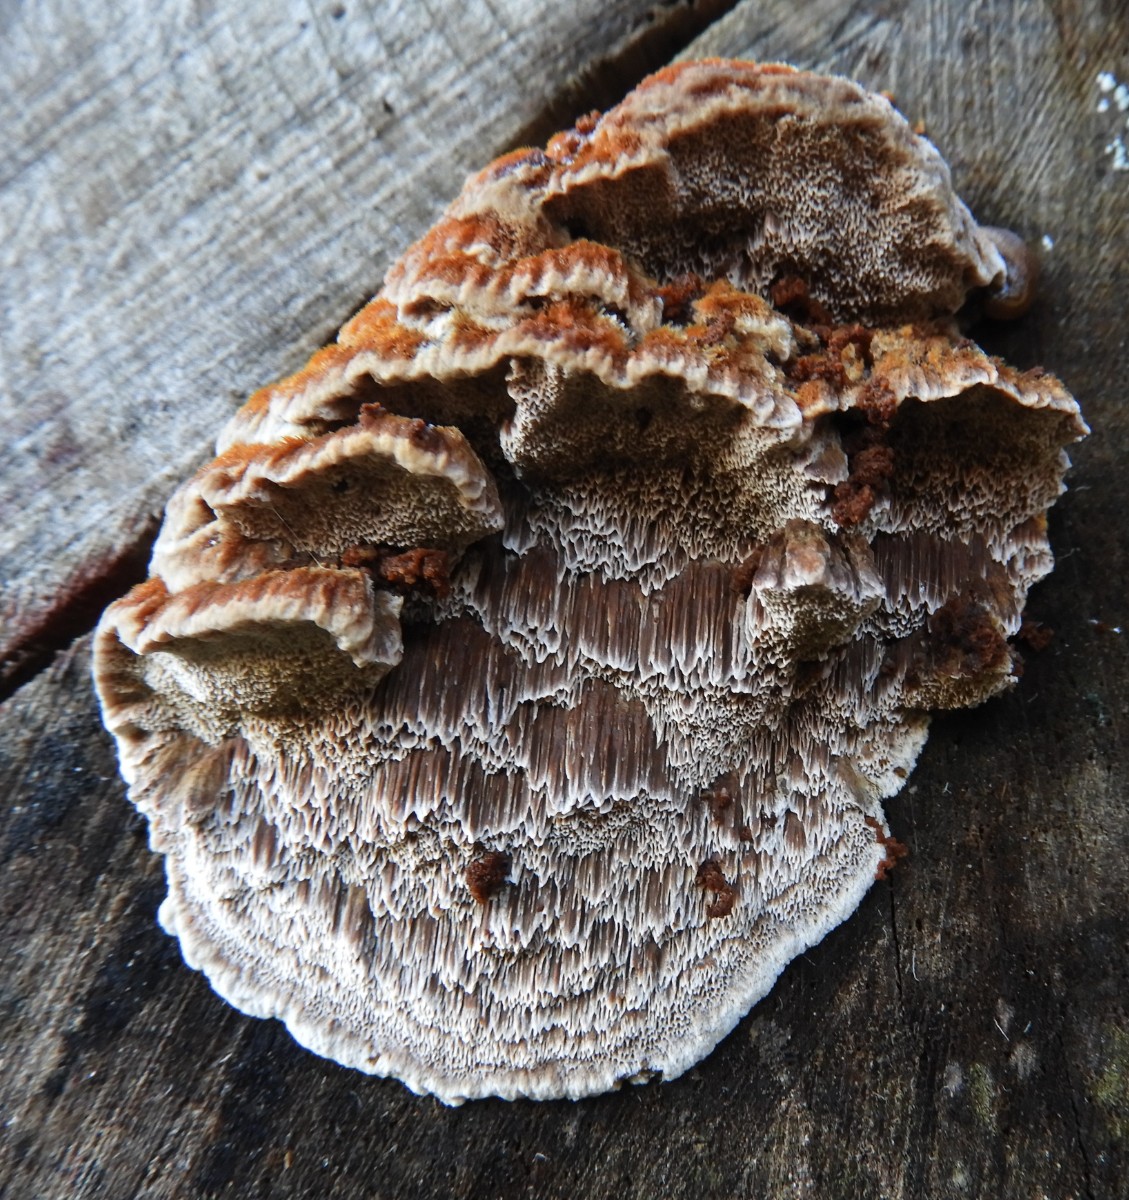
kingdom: Fungi
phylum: Basidiomycota
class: Agaricomycetes
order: Hymenochaetales
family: Hymenochaetaceae
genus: Mensularia
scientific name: Mensularia nodulosa
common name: bøge-spejlporesvamp
